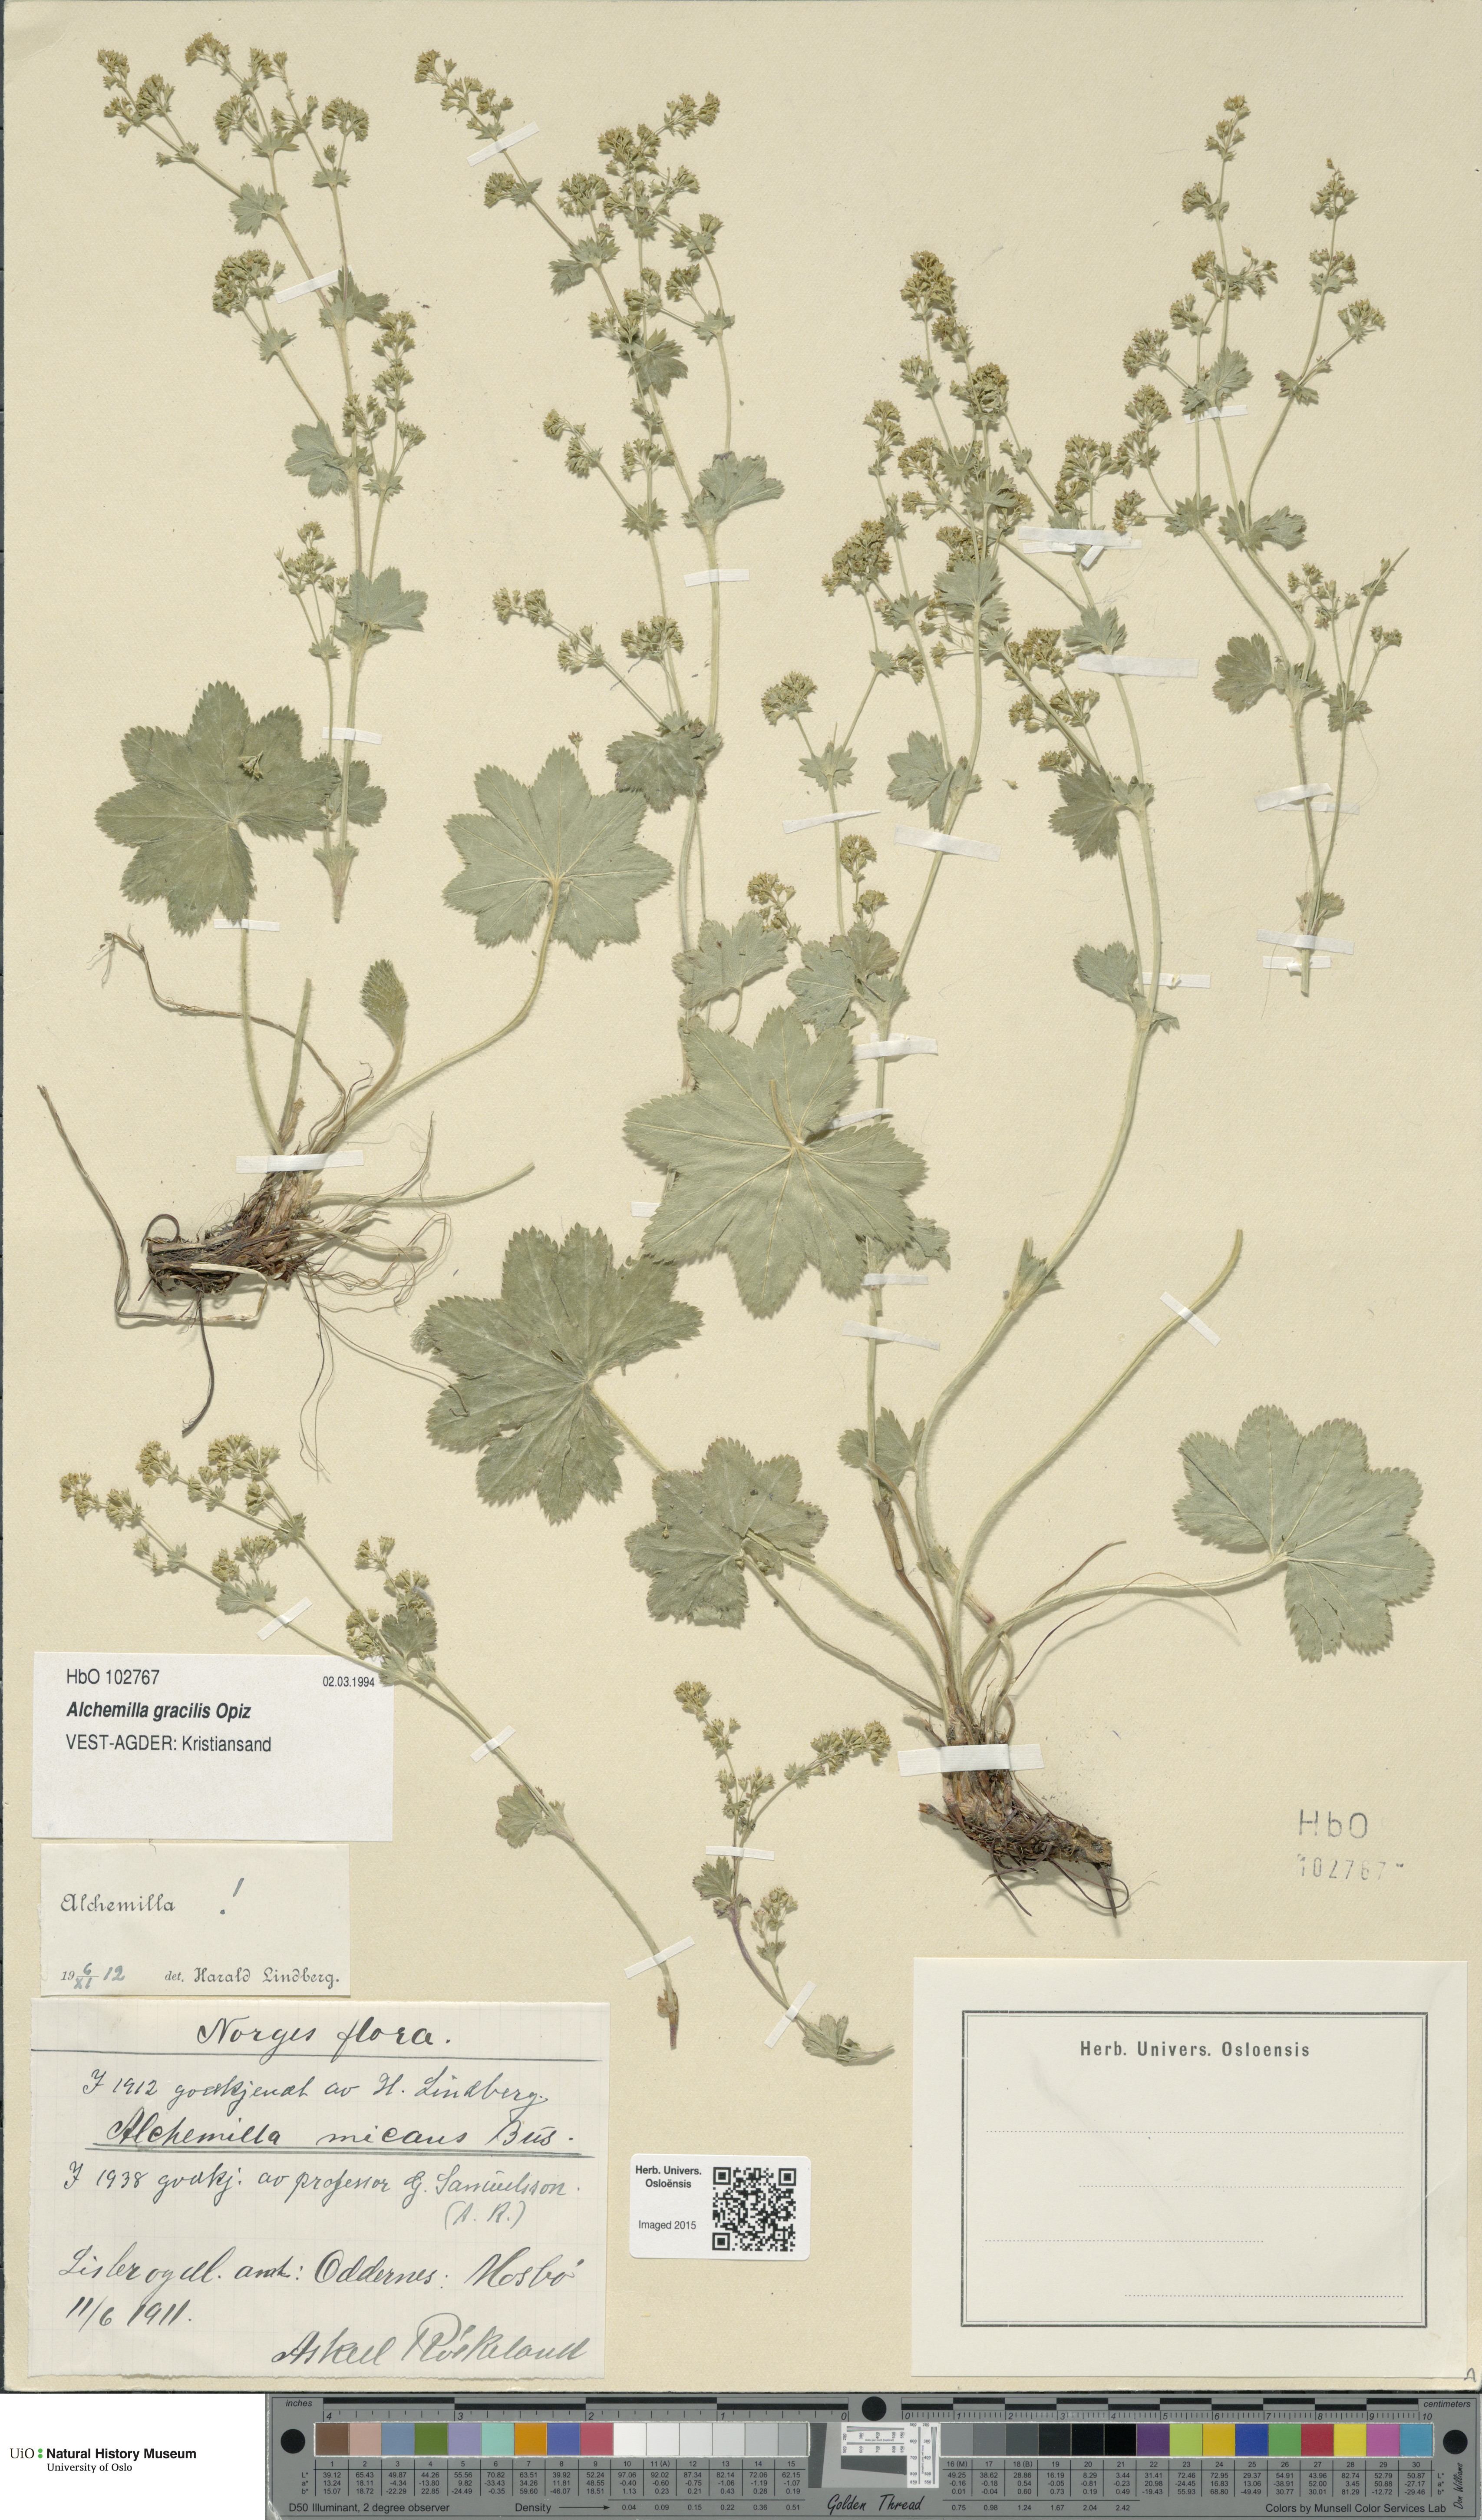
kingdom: Plantae
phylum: Tracheophyta
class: Magnoliopsida
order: Rosales
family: Rosaceae
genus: Alchemilla
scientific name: Alchemilla micans
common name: Gleaming lady's mantle
